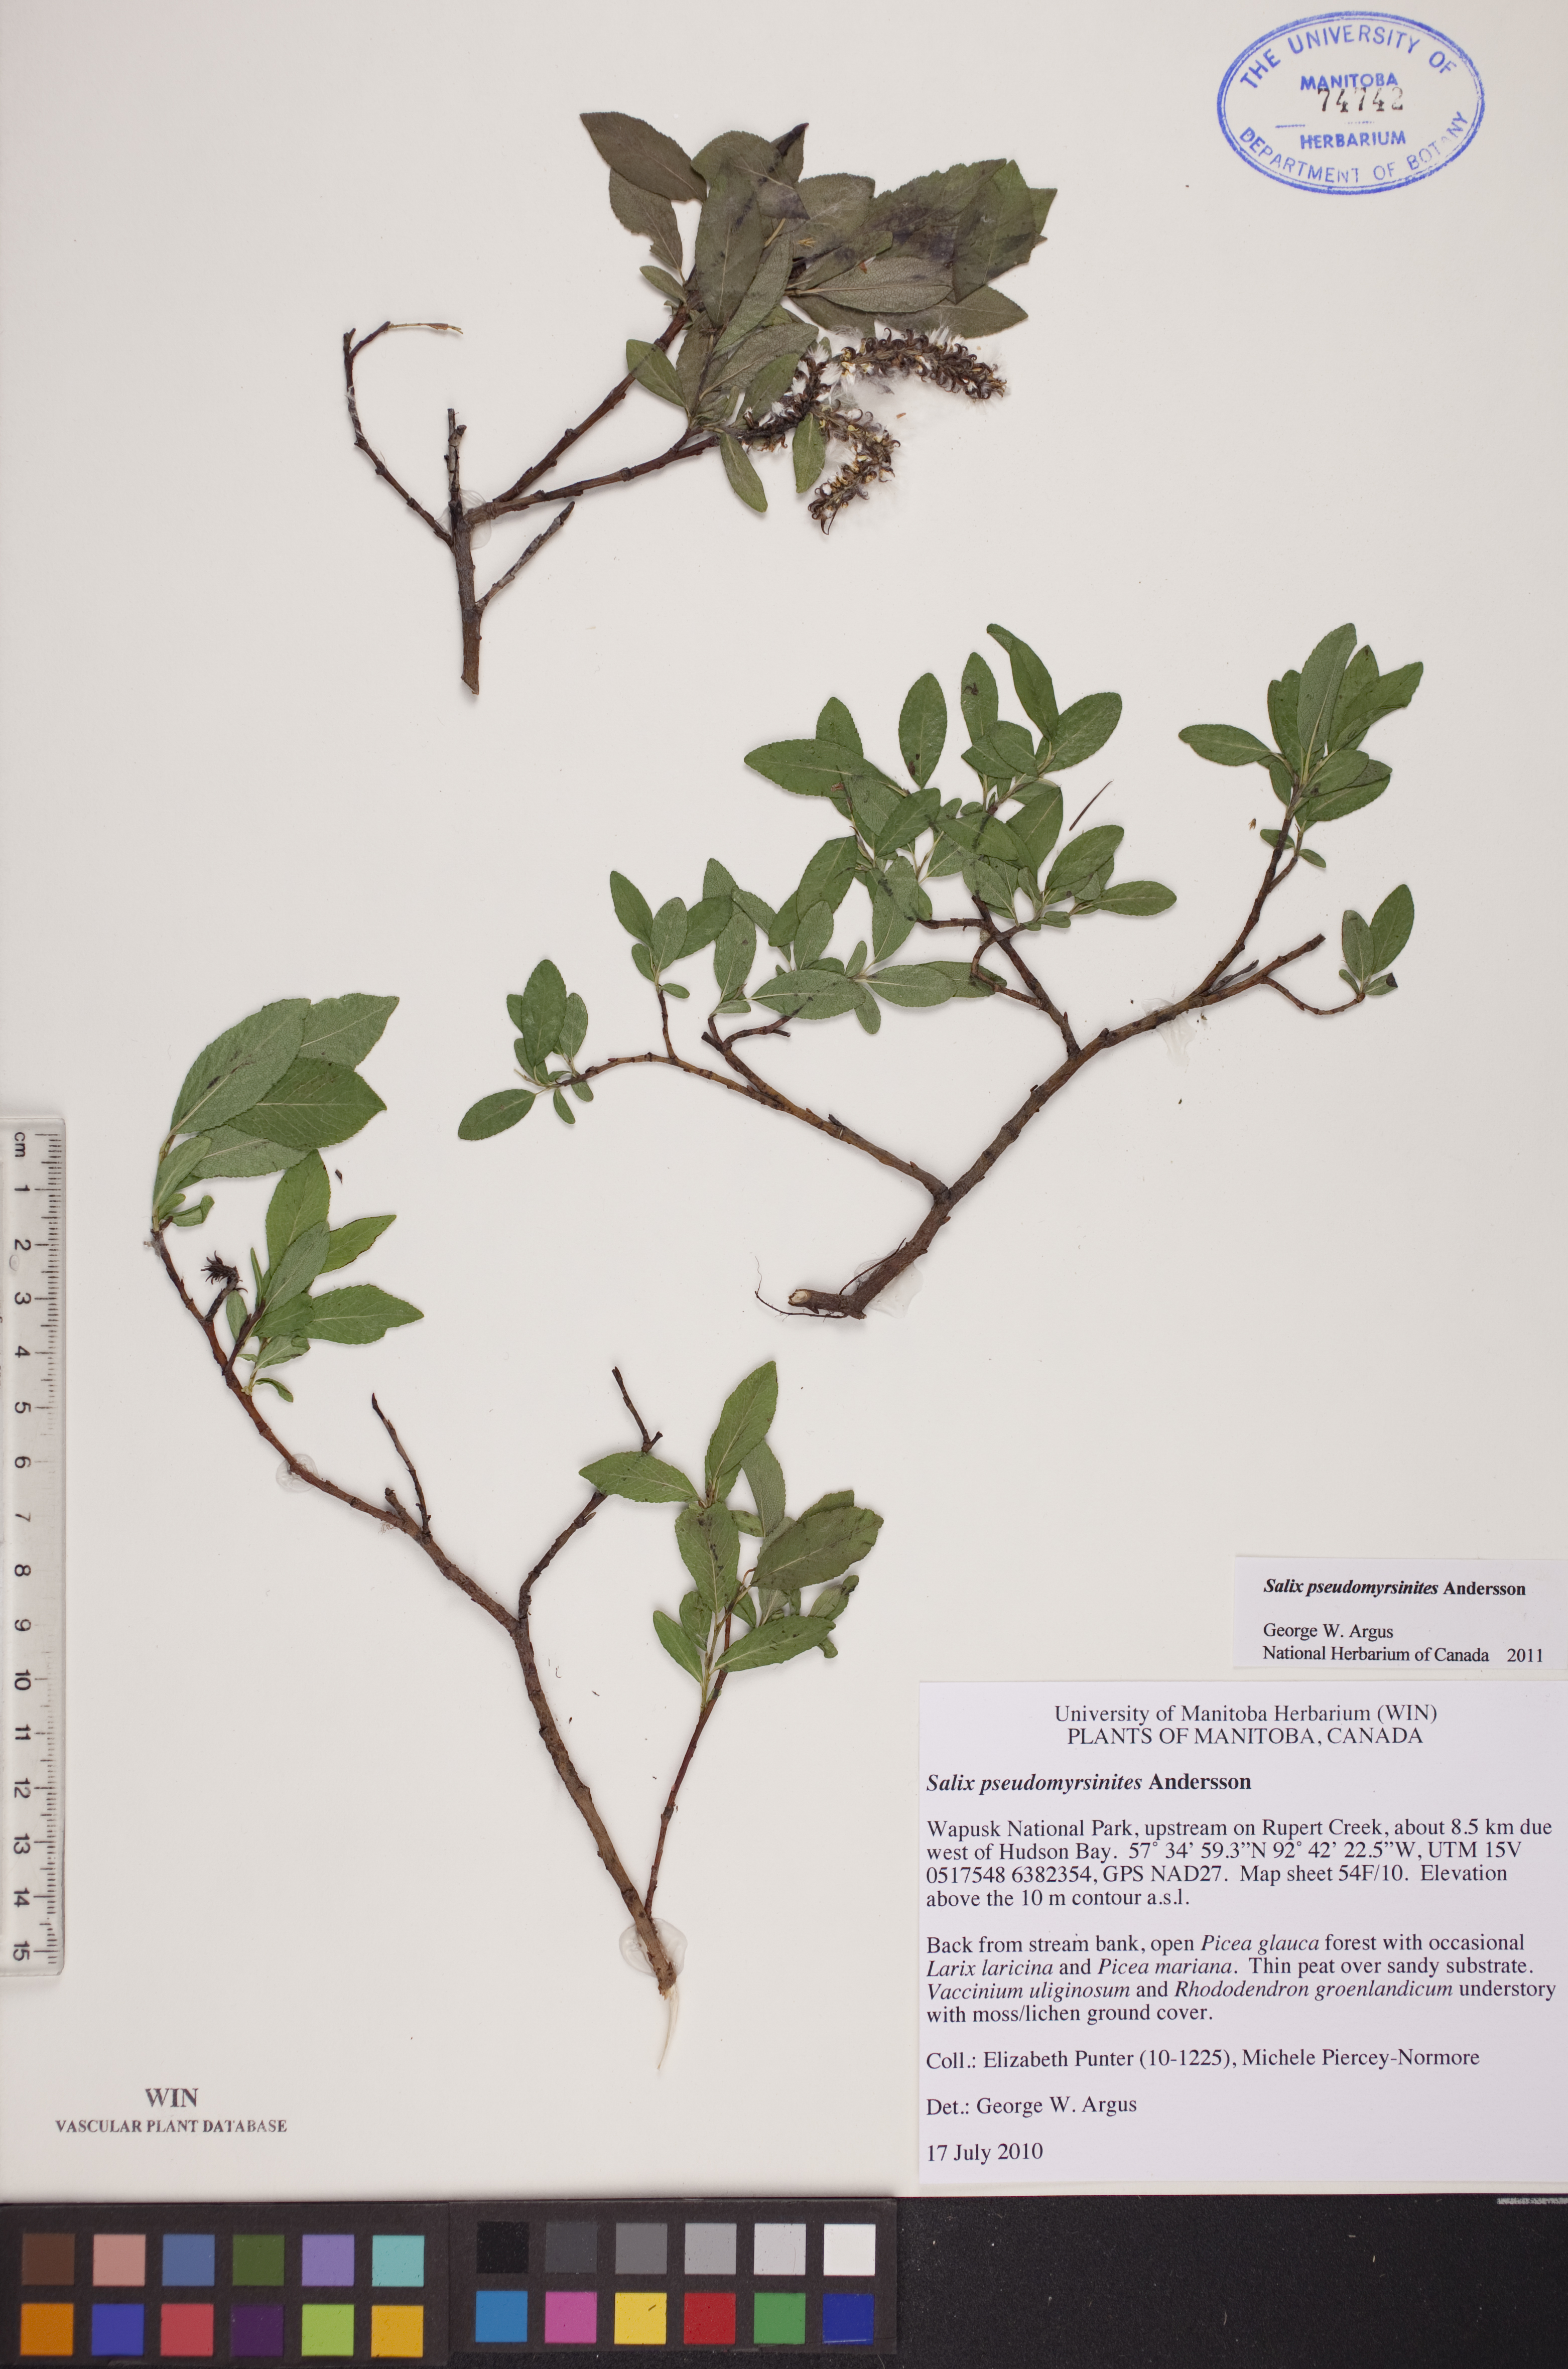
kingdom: Plantae
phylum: Tracheophyta
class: Magnoliopsida
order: Malpighiales
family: Salicaceae
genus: Salix
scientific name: Salix pseudomyrsinites
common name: Tall blueberry willow
